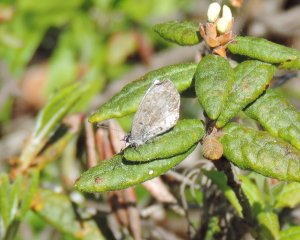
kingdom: Animalia
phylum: Arthropoda
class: Insecta
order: Lepidoptera
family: Lycaenidae
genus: Cyaniris
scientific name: Cyaniris neglecta
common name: Summer Azure
